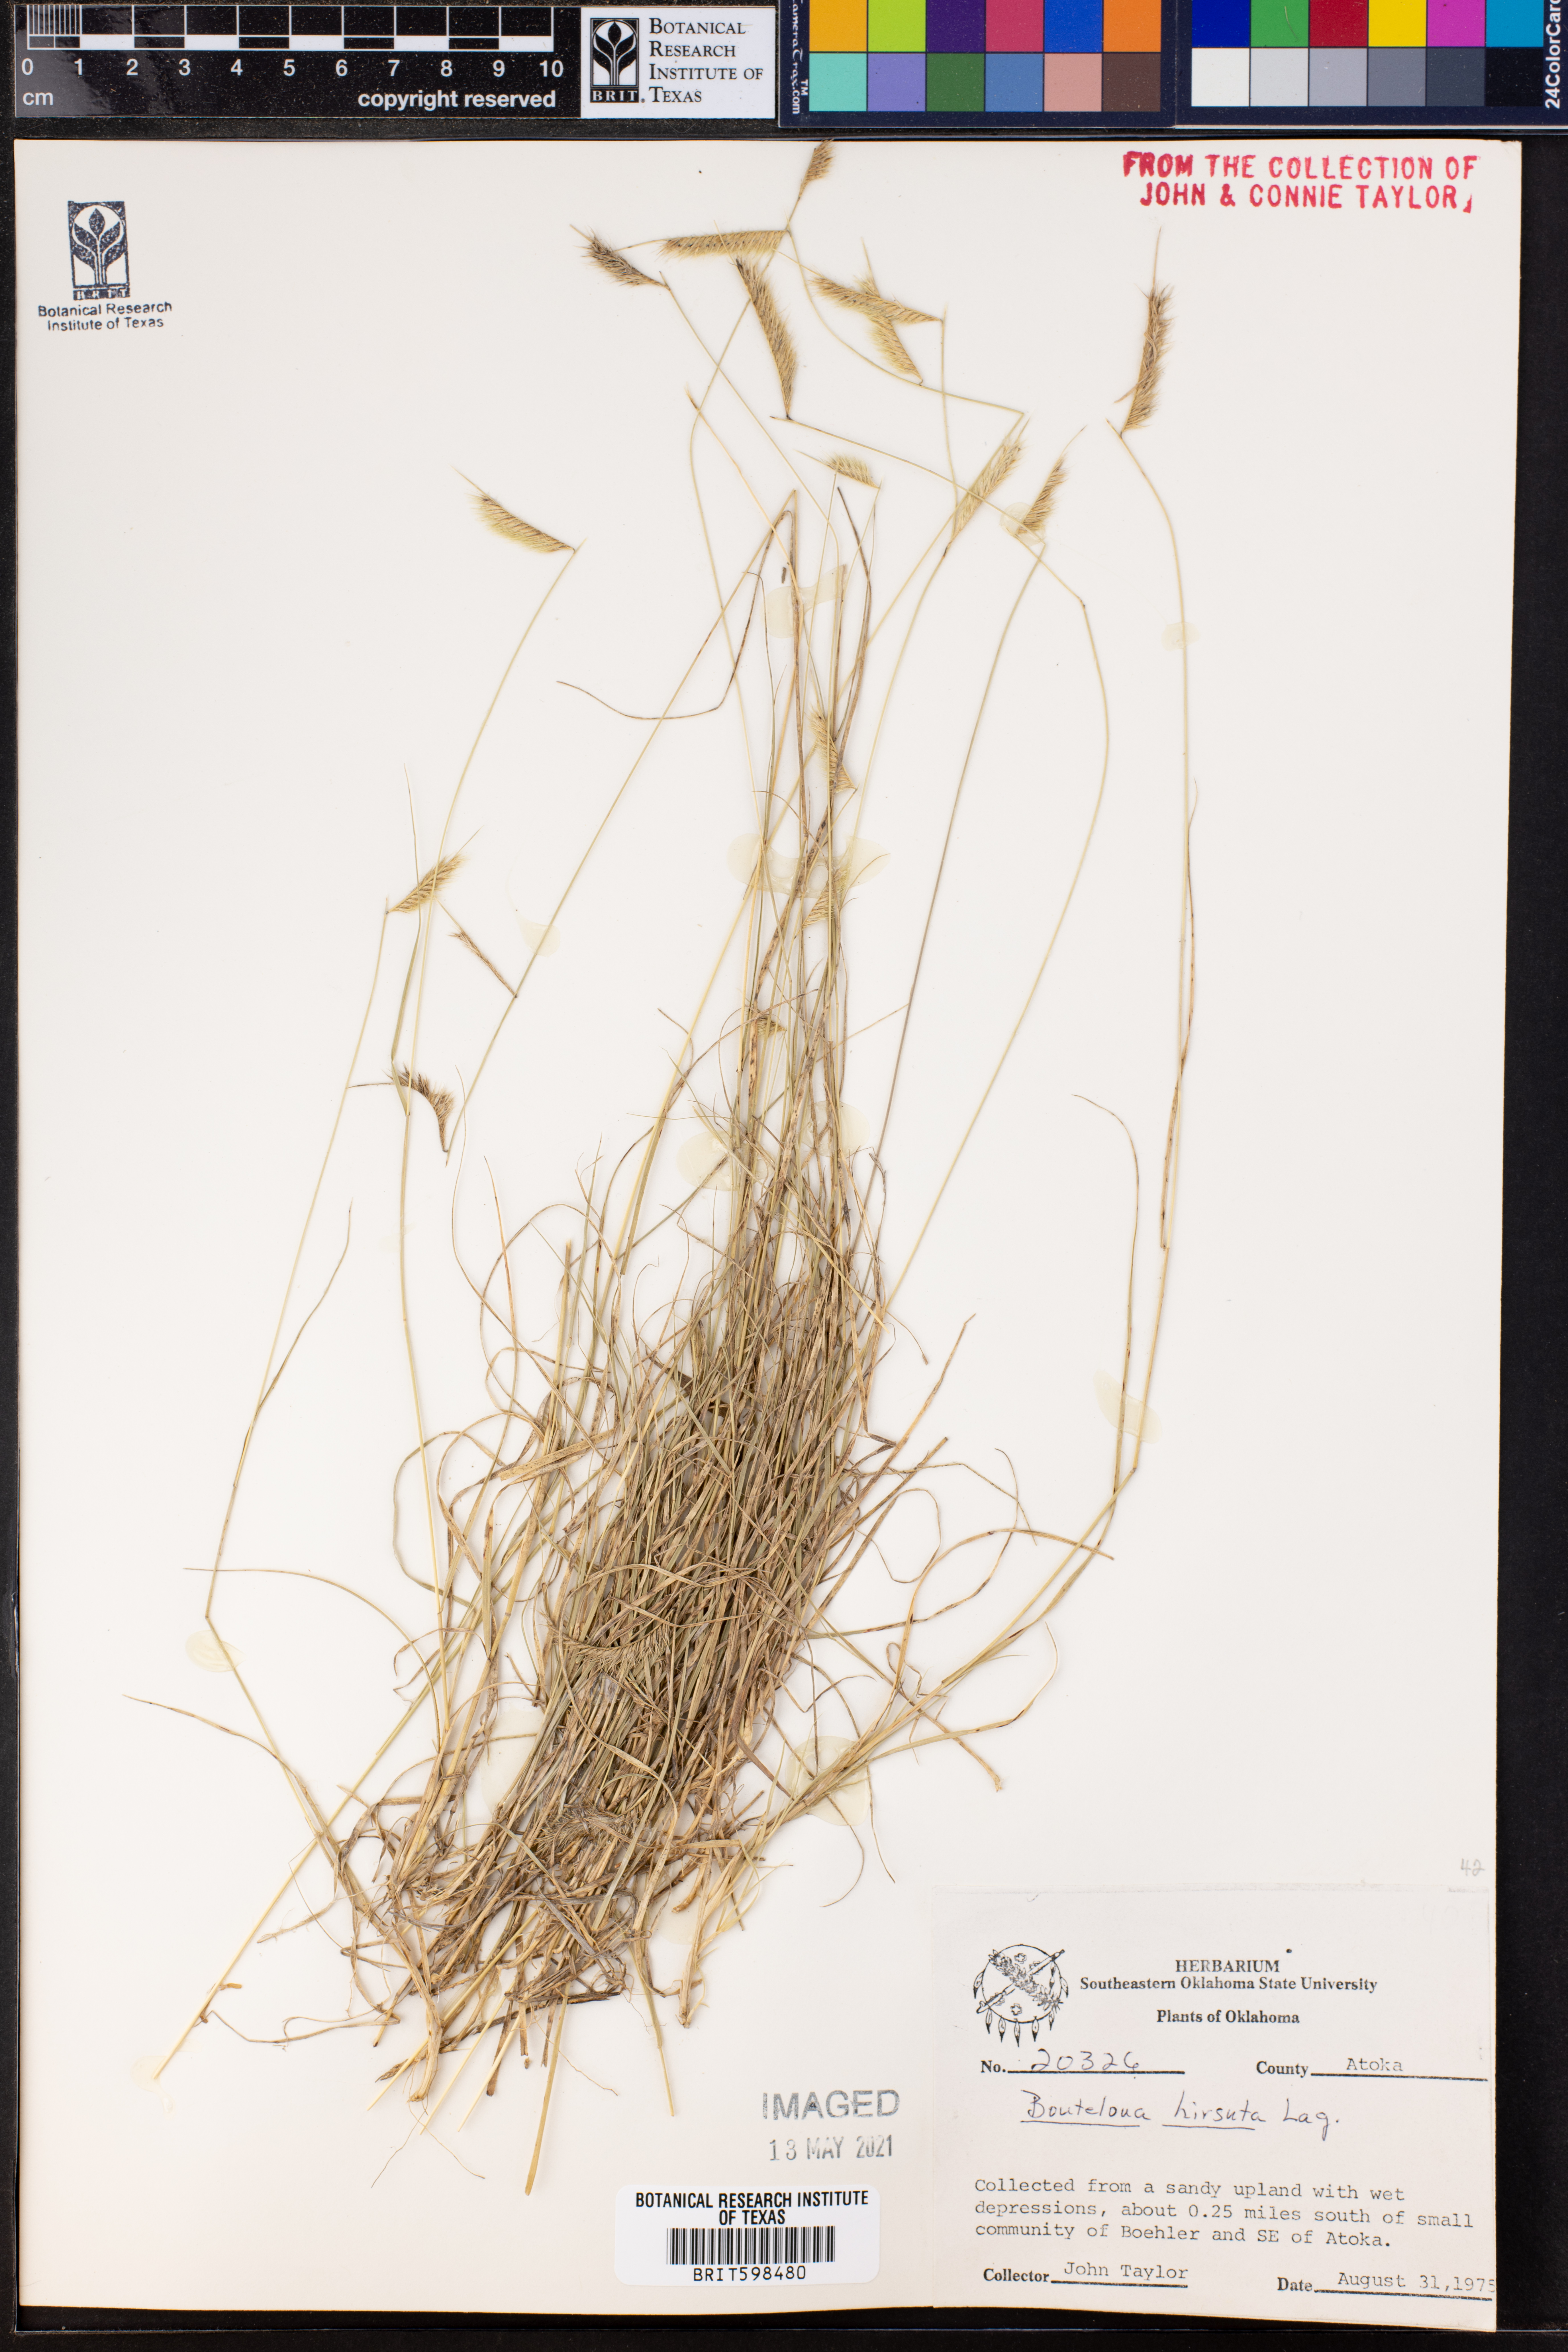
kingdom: Plantae
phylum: Tracheophyta
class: Liliopsida
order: Poales
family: Poaceae
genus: Bouteloua
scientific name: Bouteloua hirsuta
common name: Hairy grama
